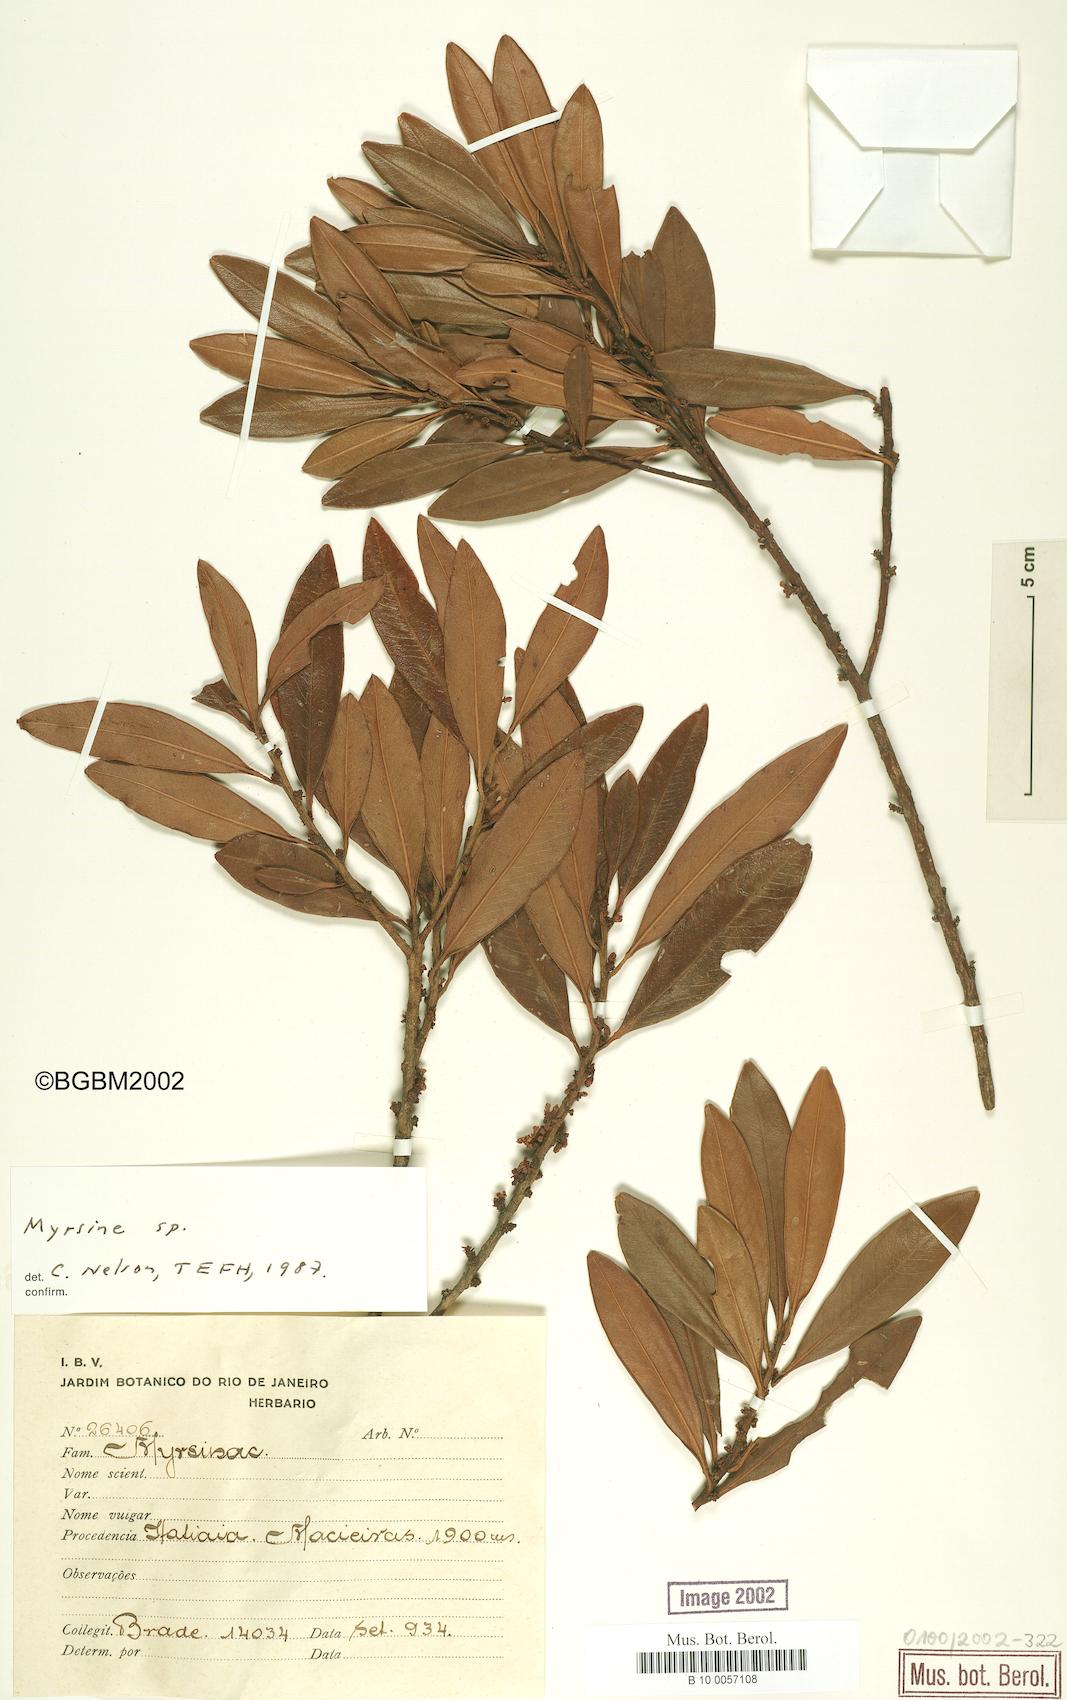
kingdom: Plantae
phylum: Tracheophyta
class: Magnoliopsida
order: Ericales
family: Primulaceae
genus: Myrsine
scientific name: Myrsine
